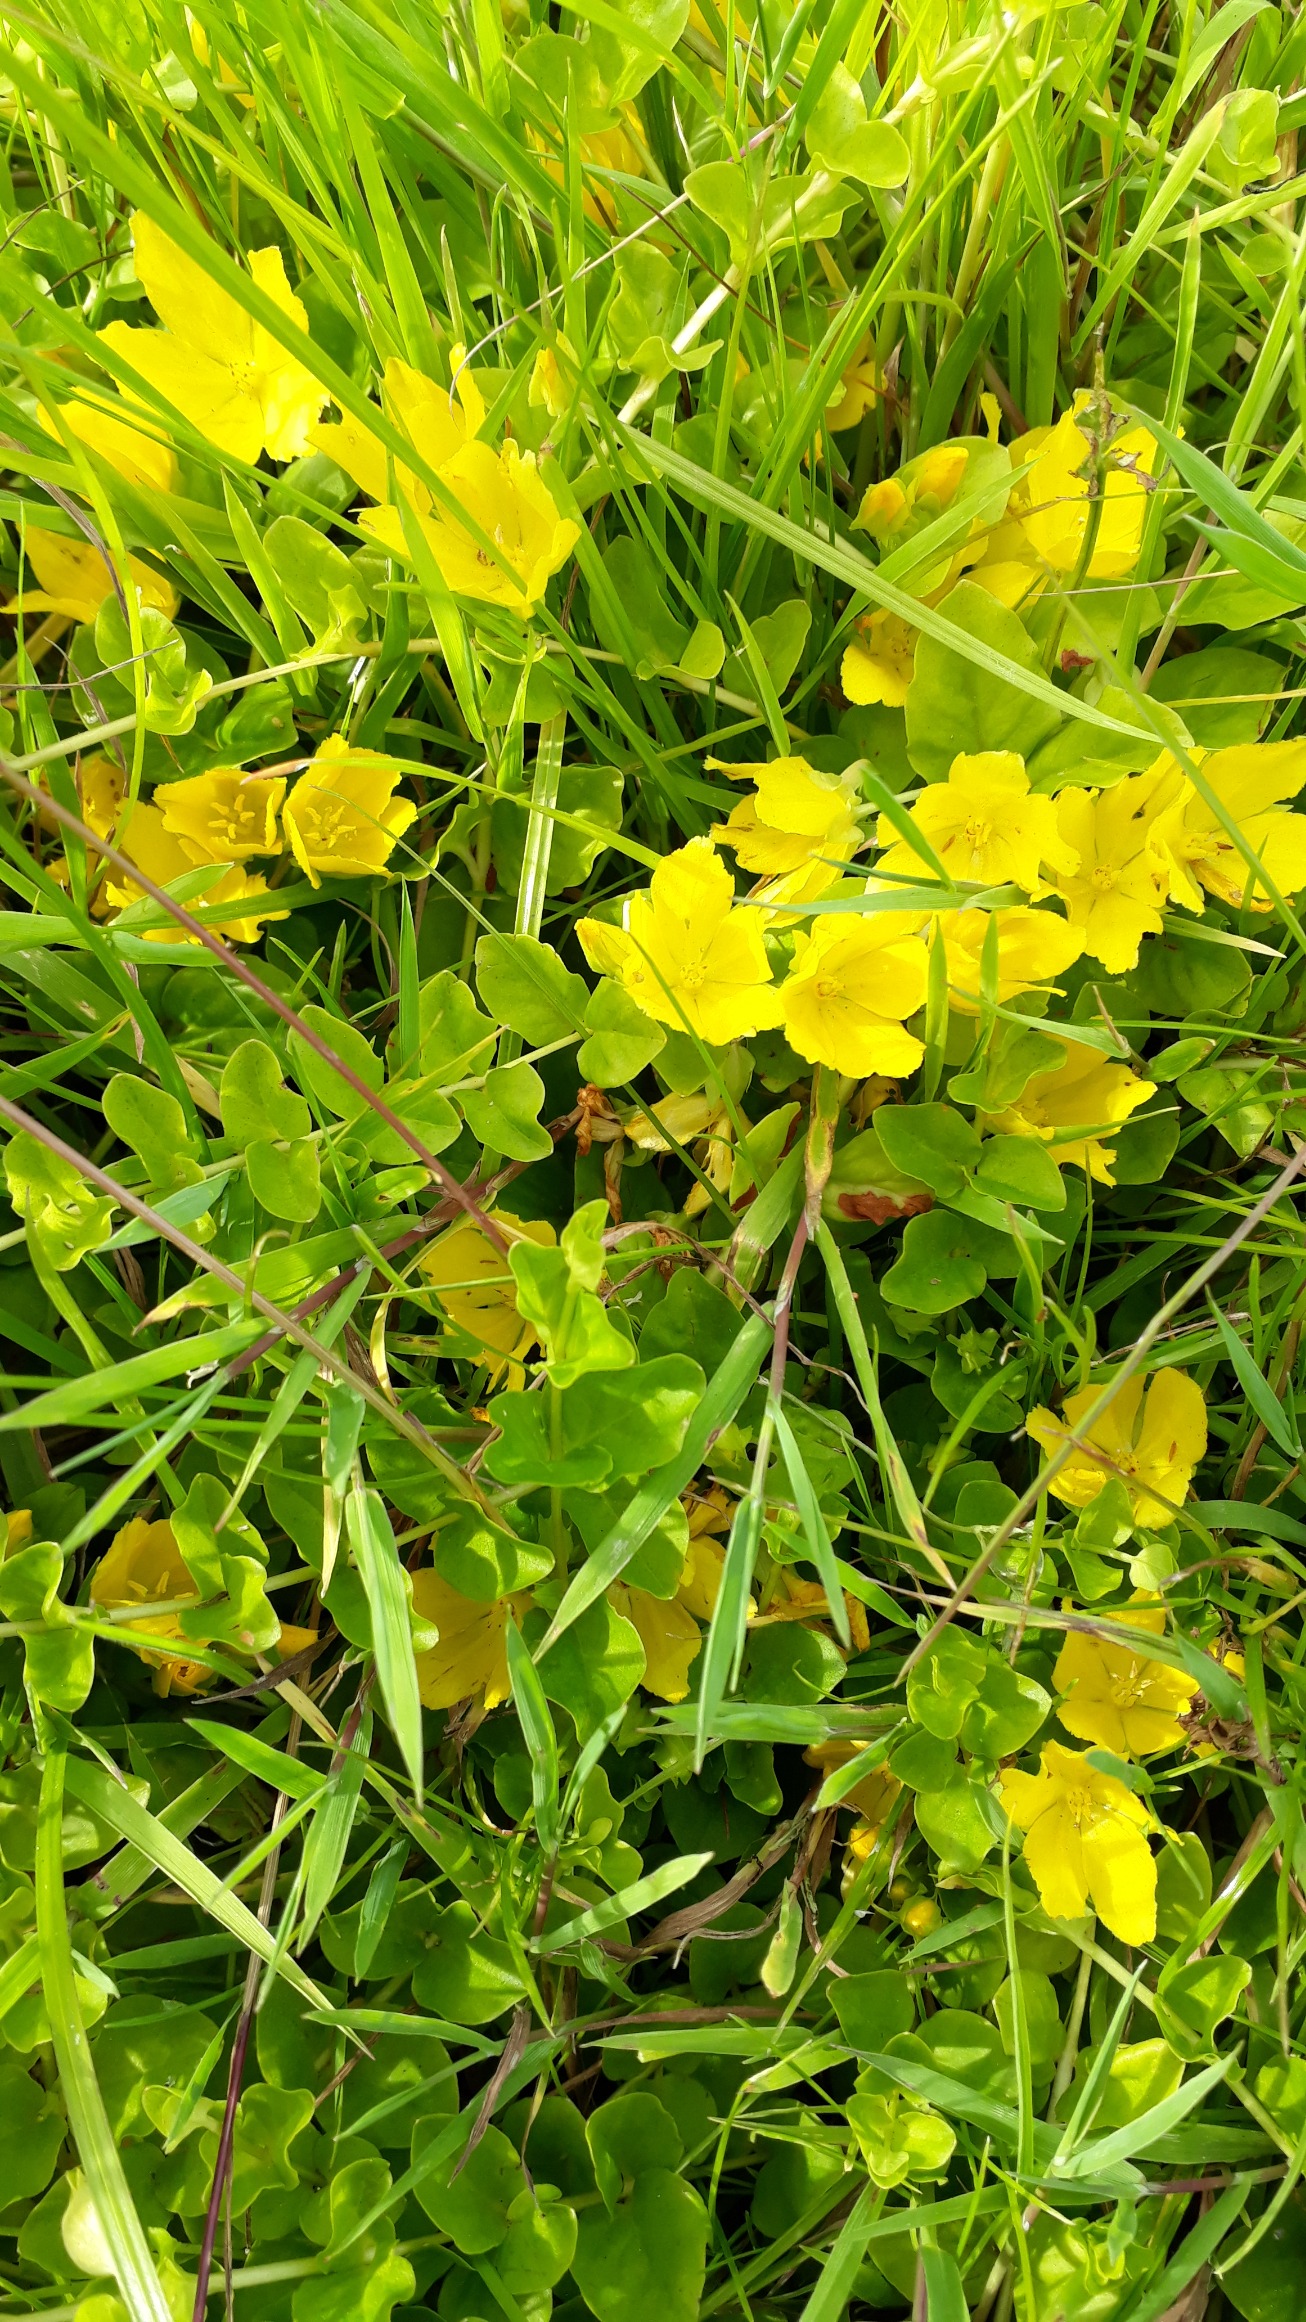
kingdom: Plantae
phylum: Tracheophyta
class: Magnoliopsida
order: Ericales
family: Primulaceae
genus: Lysimachia
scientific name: Lysimachia nummularia
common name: Pengebladet fredløs
